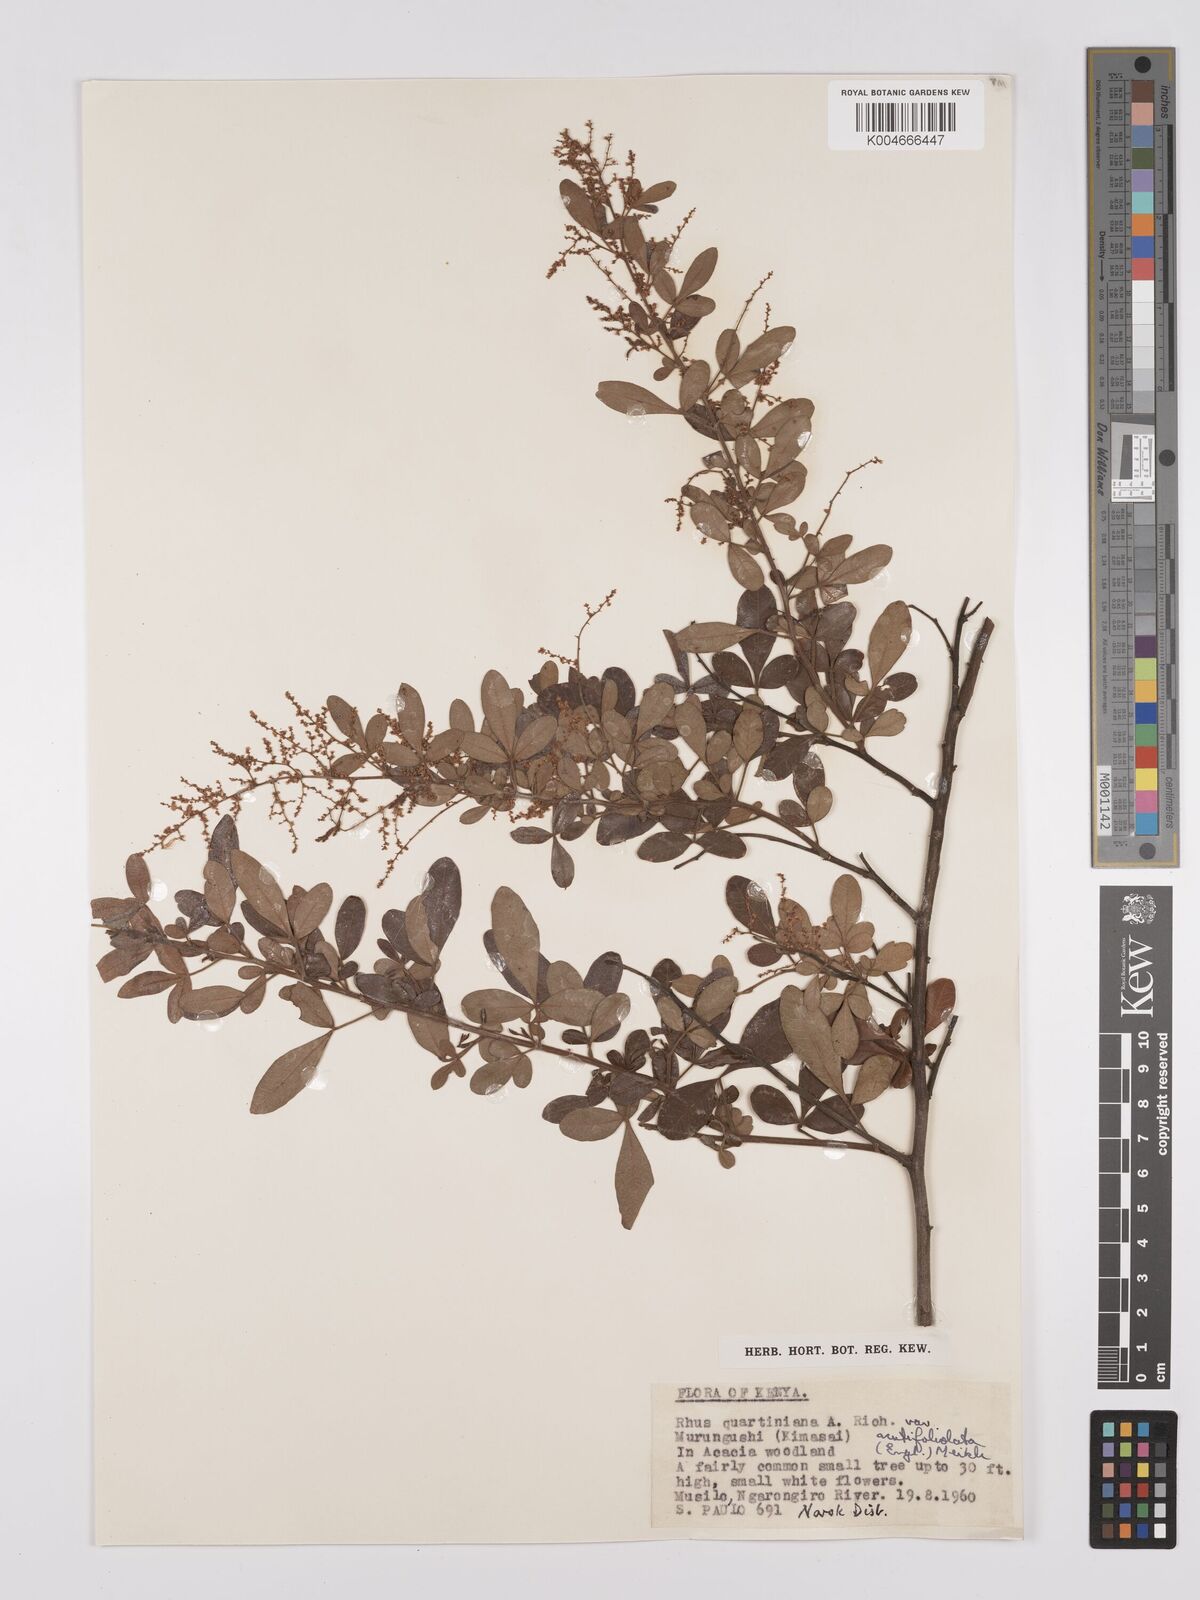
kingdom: Plantae
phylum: Tracheophyta
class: Magnoliopsida
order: Sapindales
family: Anacardiaceae
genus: Searsia
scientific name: Searsia quartiniana
